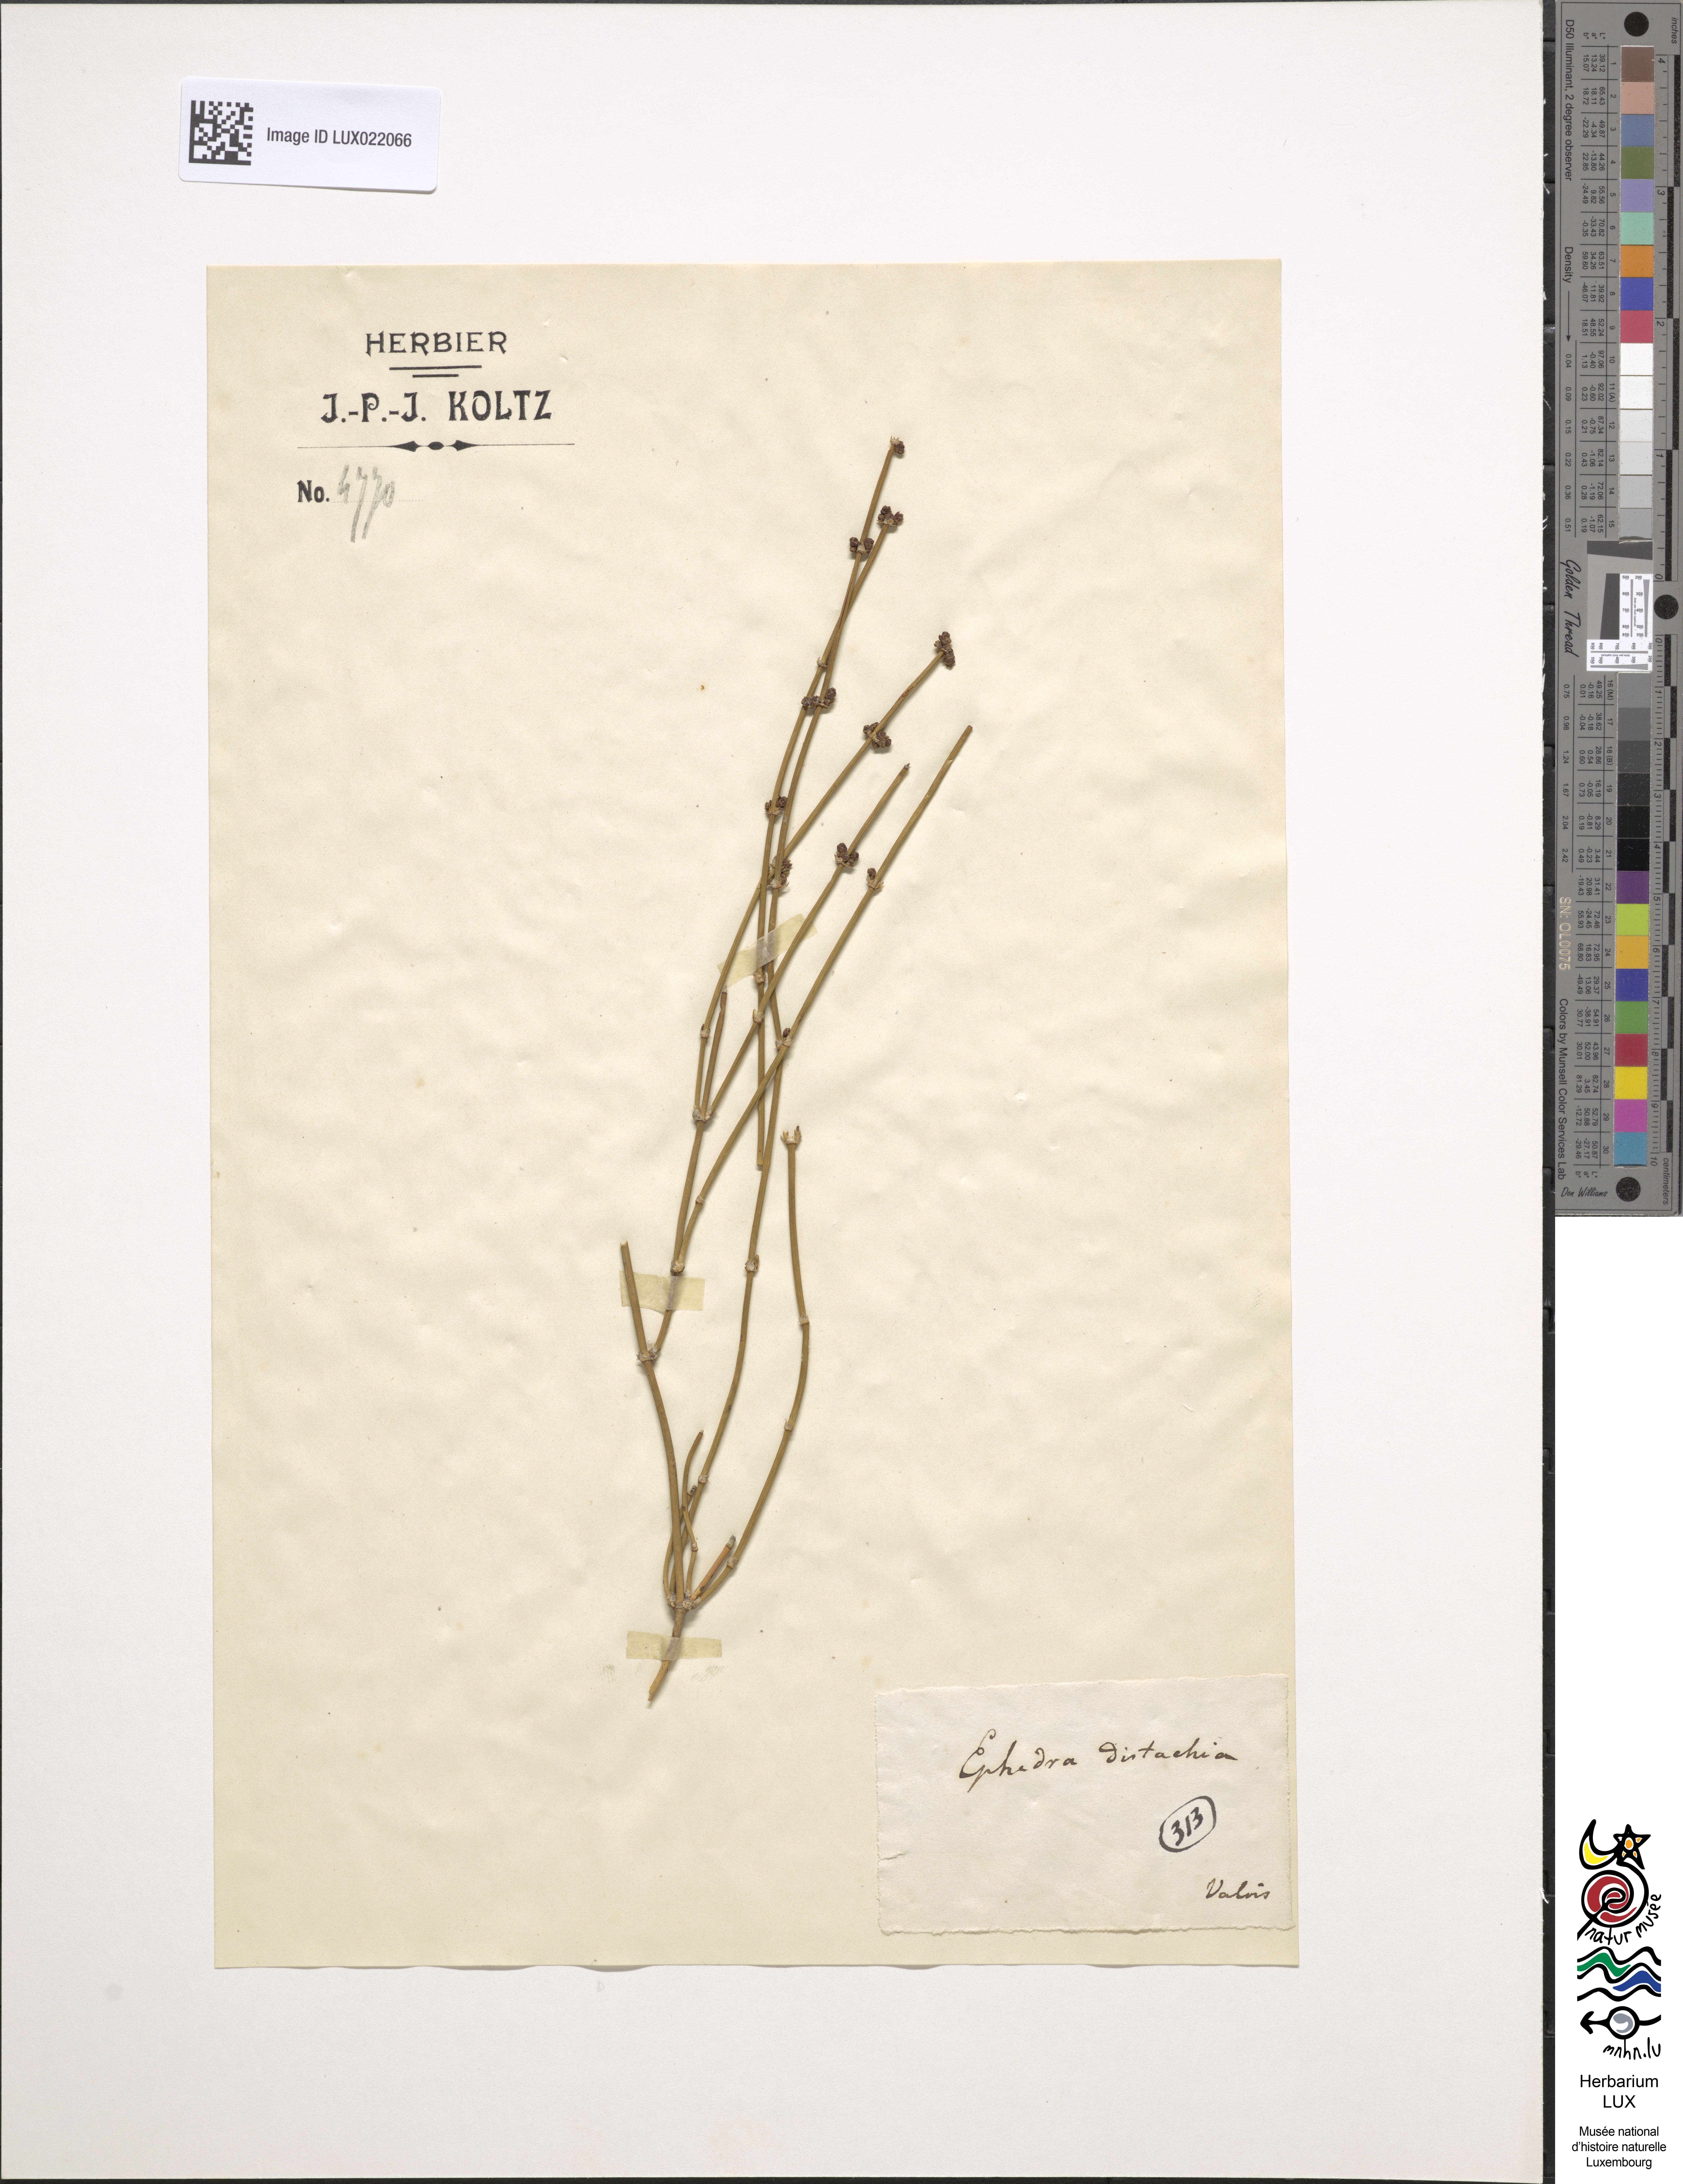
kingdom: Plantae
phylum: Tracheophyta
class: Gnetopsida
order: Ephedrales
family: Ephedraceae
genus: Ephedra
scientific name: Ephedra distachya
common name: Sea grape
